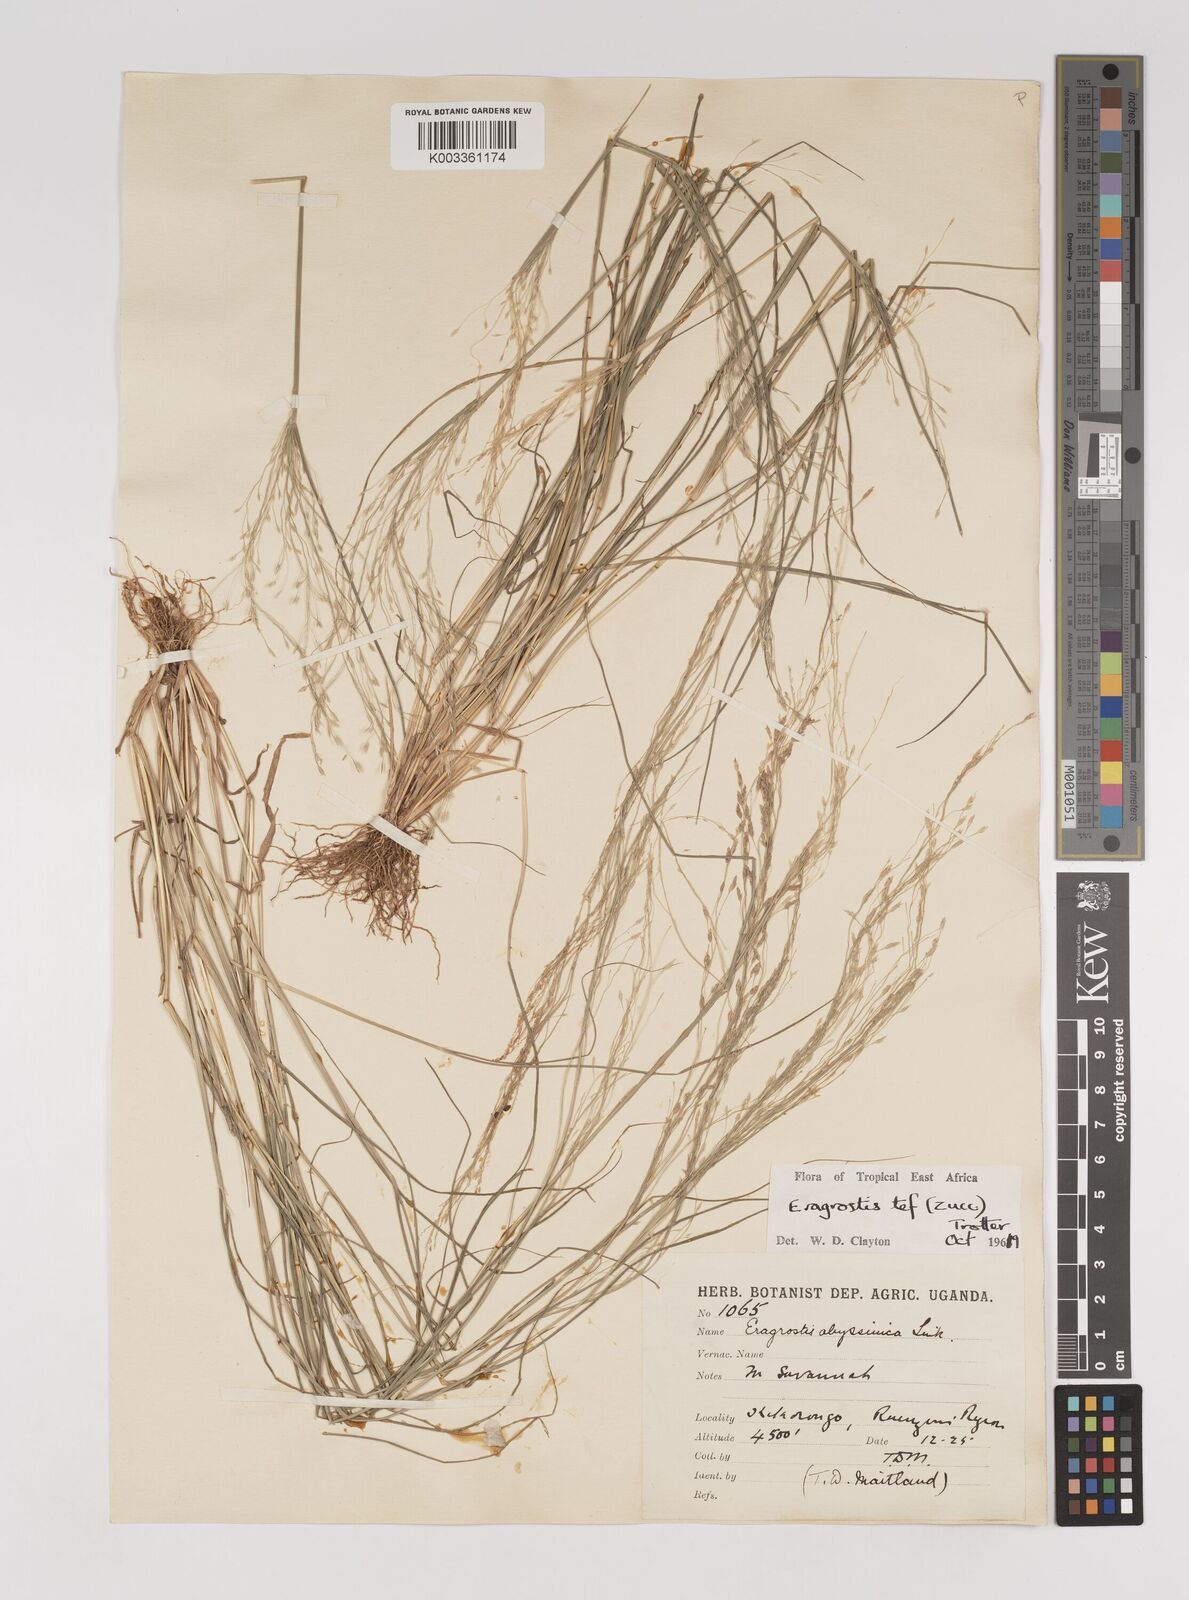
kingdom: Plantae
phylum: Tracheophyta
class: Liliopsida
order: Poales
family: Poaceae
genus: Eragrostis
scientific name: Eragrostis tef
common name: Teff
